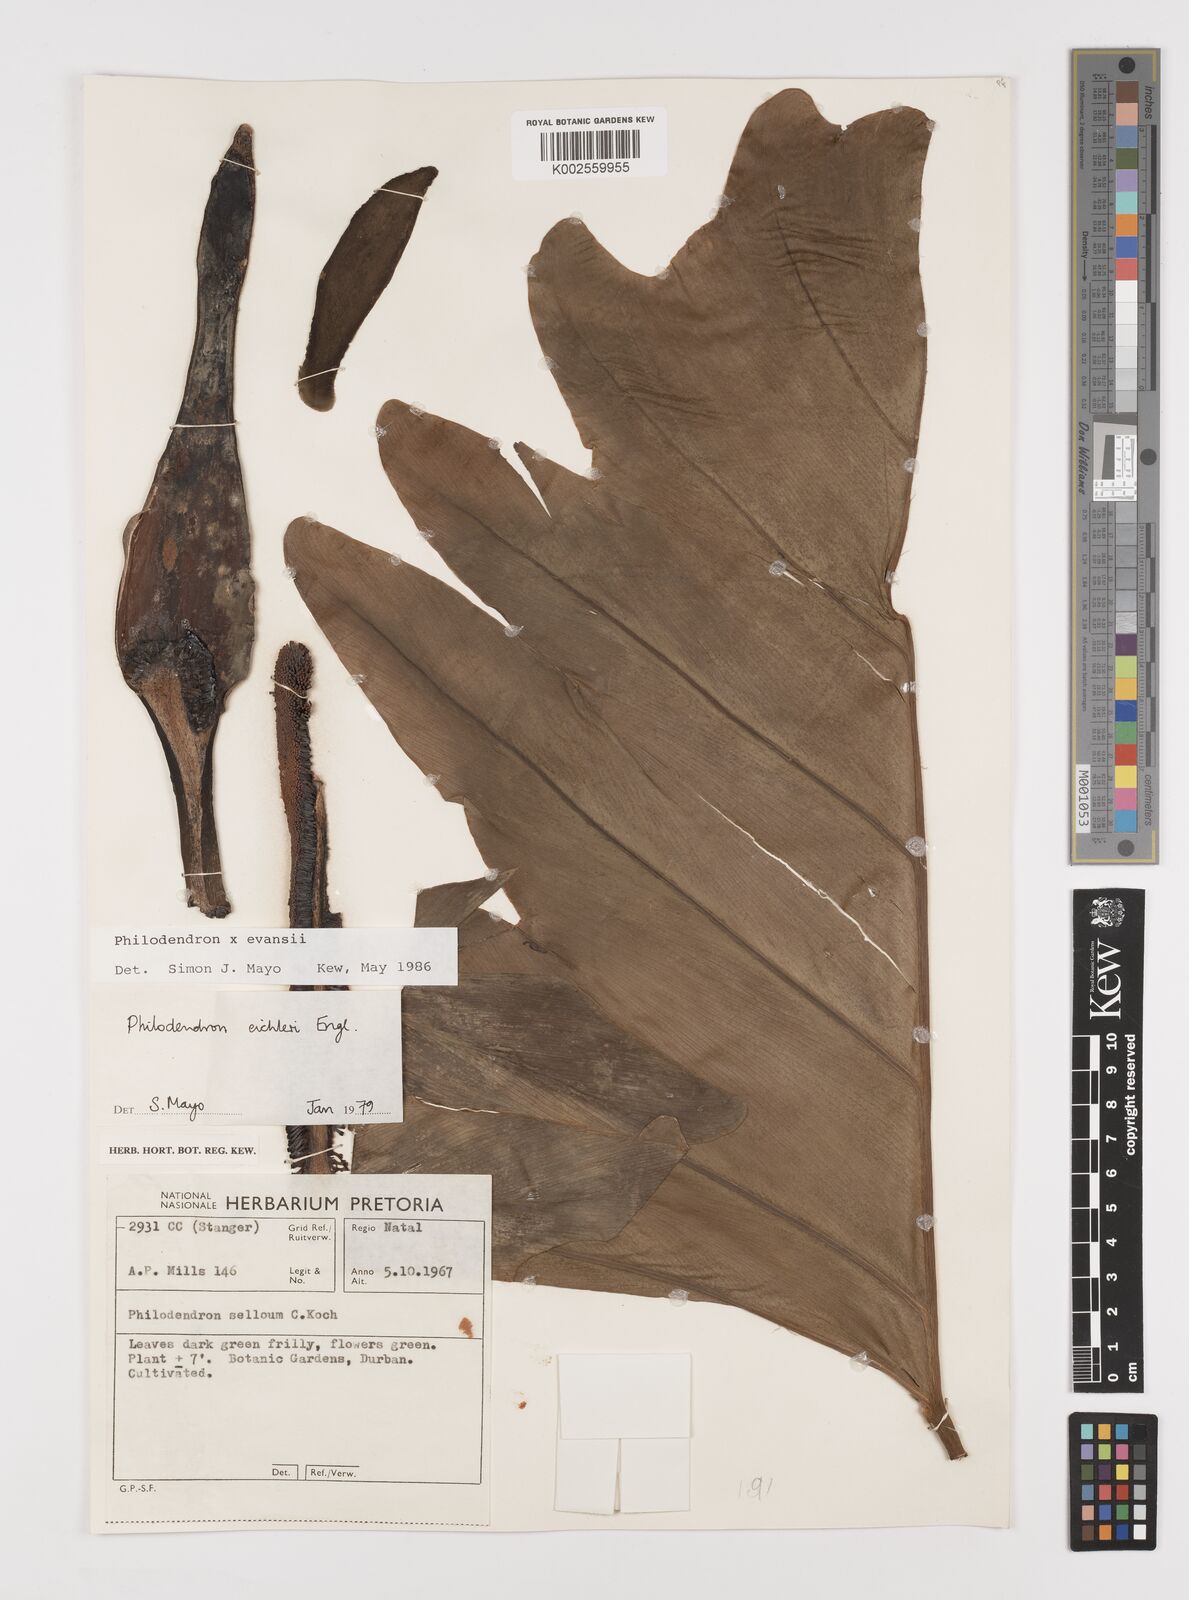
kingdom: Plantae
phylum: Tracheophyta
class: Liliopsida
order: Alismatales
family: Araceae
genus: Philodendron
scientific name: Philodendron
